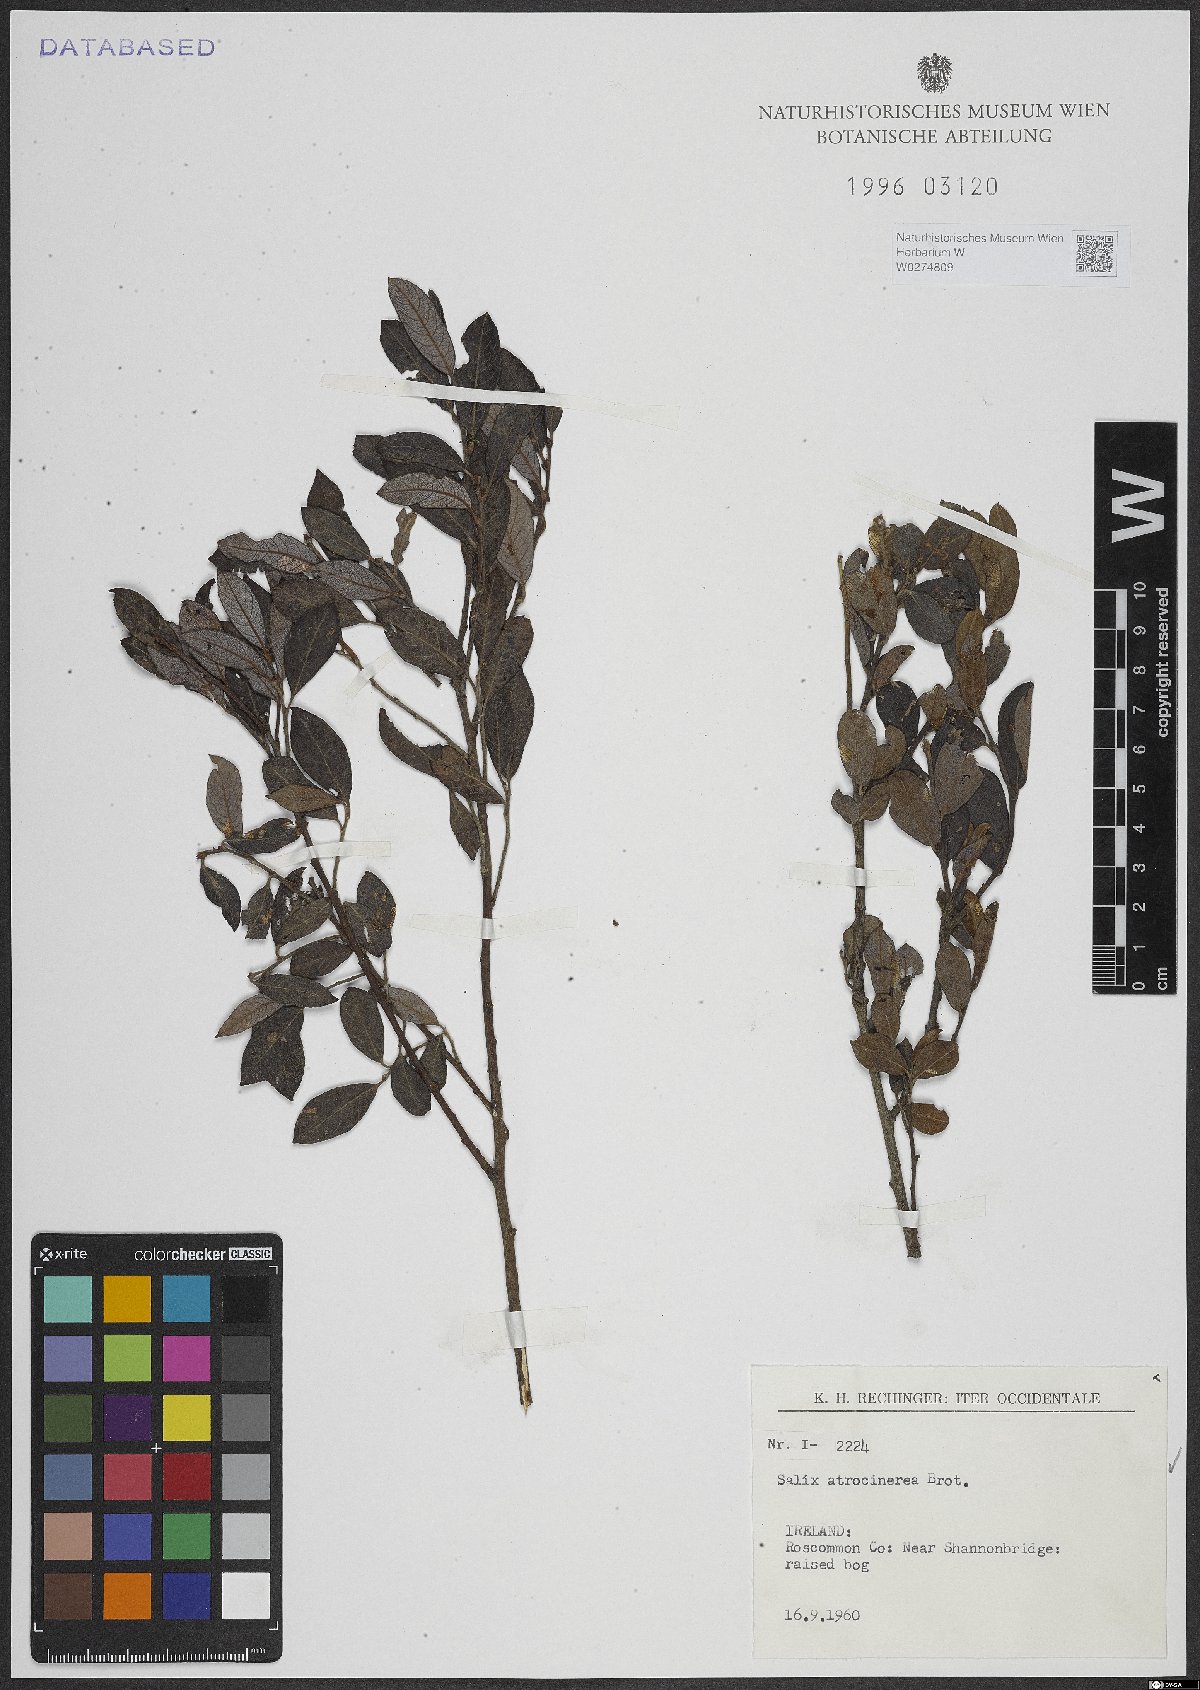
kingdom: Plantae
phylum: Tracheophyta
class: Magnoliopsida
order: Malpighiales
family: Salicaceae
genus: Salix
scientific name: Salix atrocinerea
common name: Rusty willow
